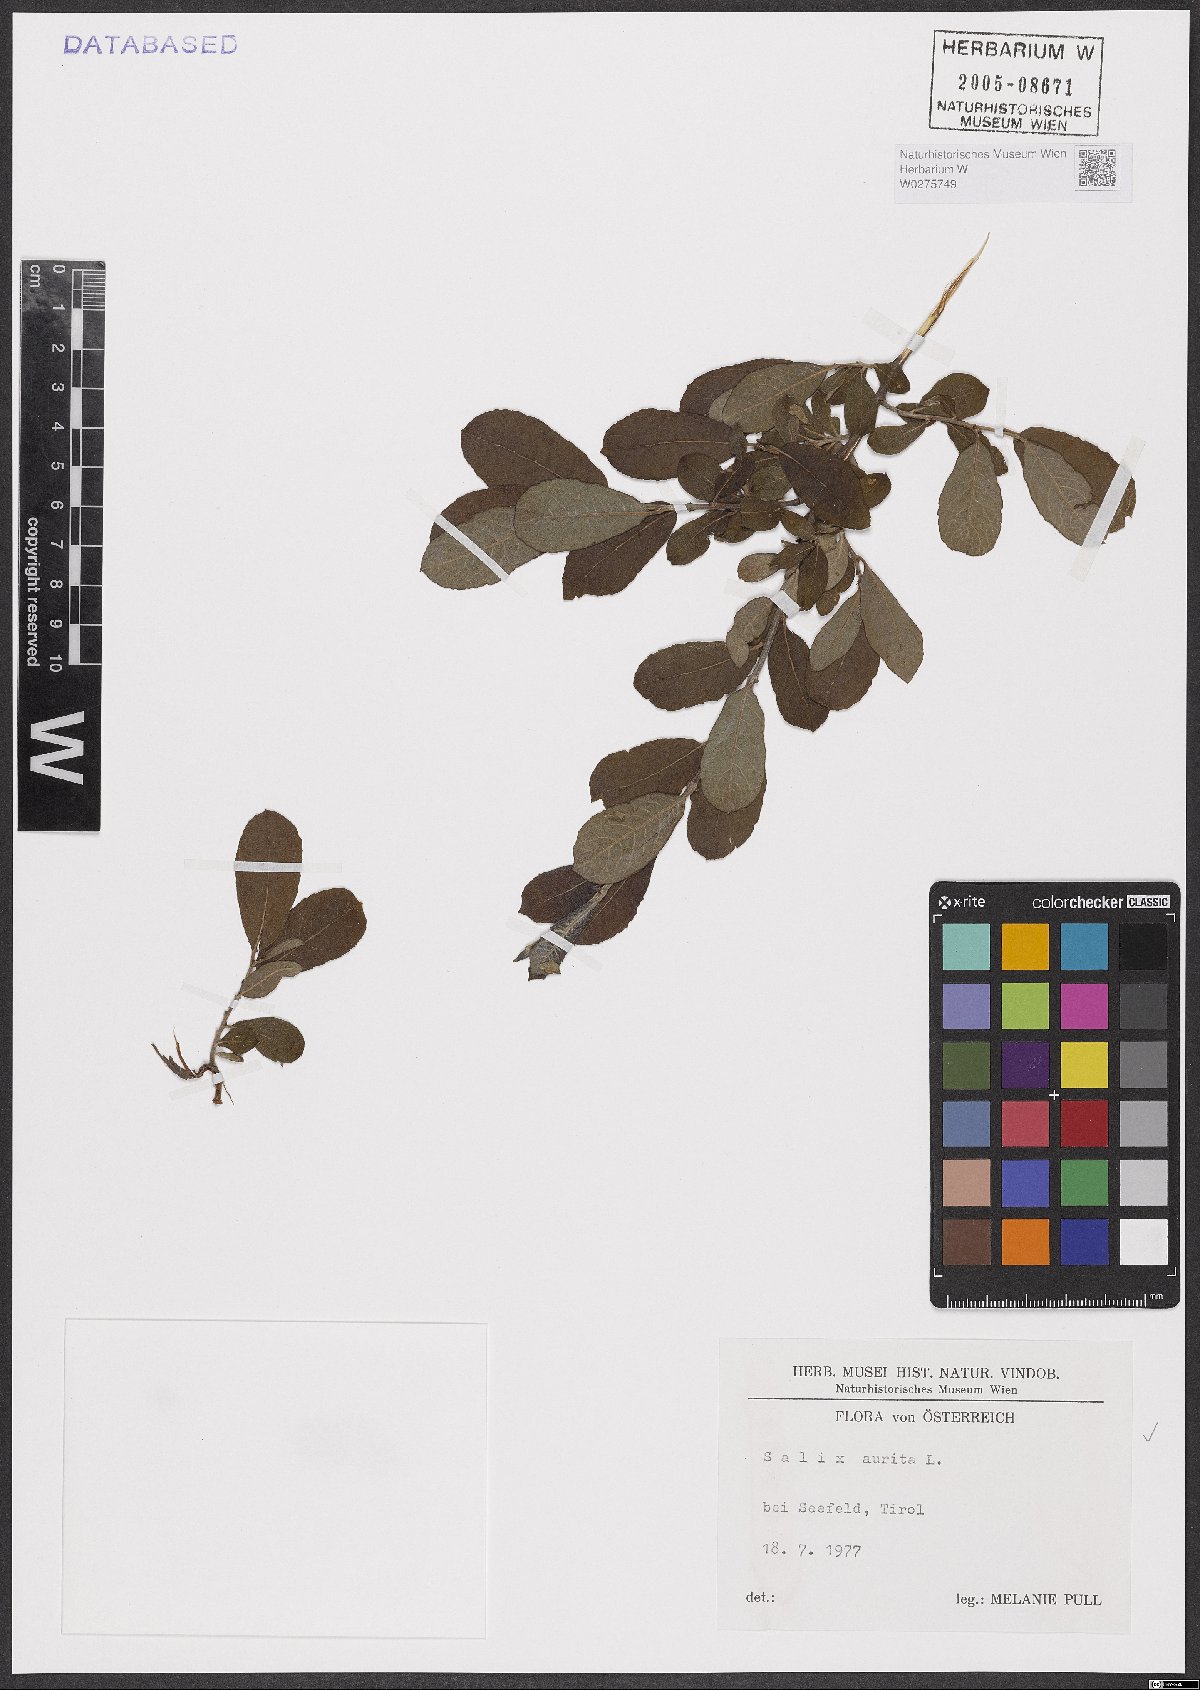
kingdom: Plantae
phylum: Tracheophyta
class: Magnoliopsida
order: Malpighiales
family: Salicaceae
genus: Salix
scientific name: Salix aurita
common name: Eared willow
